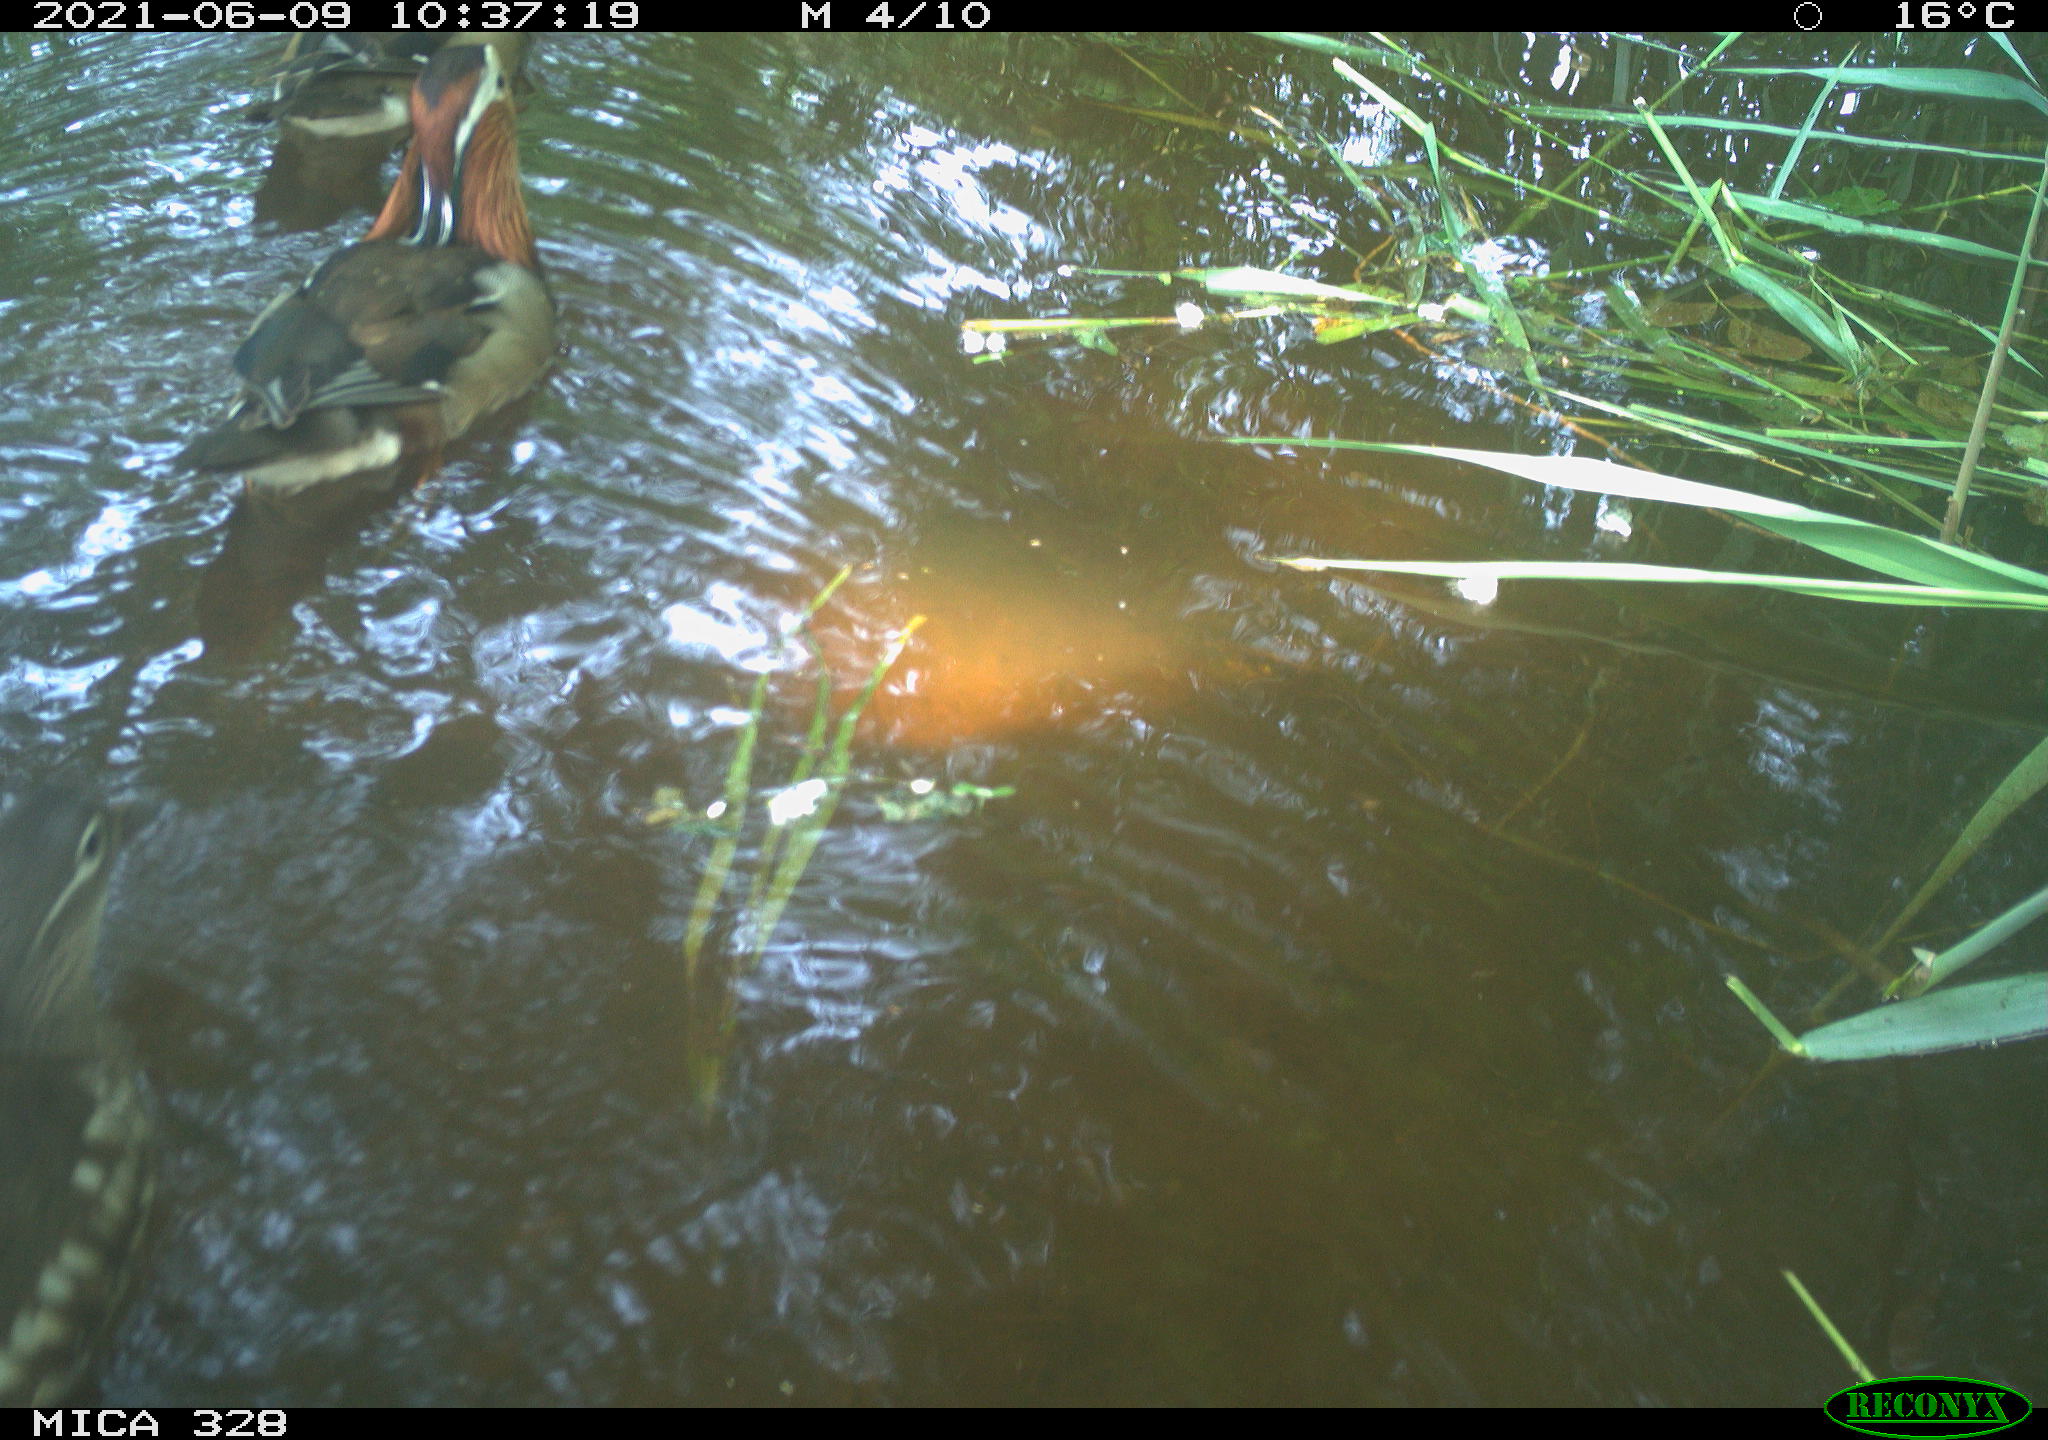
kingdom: Animalia
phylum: Chordata
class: Aves
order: Anseriformes
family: Anatidae
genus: Aix
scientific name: Aix galericulata
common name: Mandarin duck
